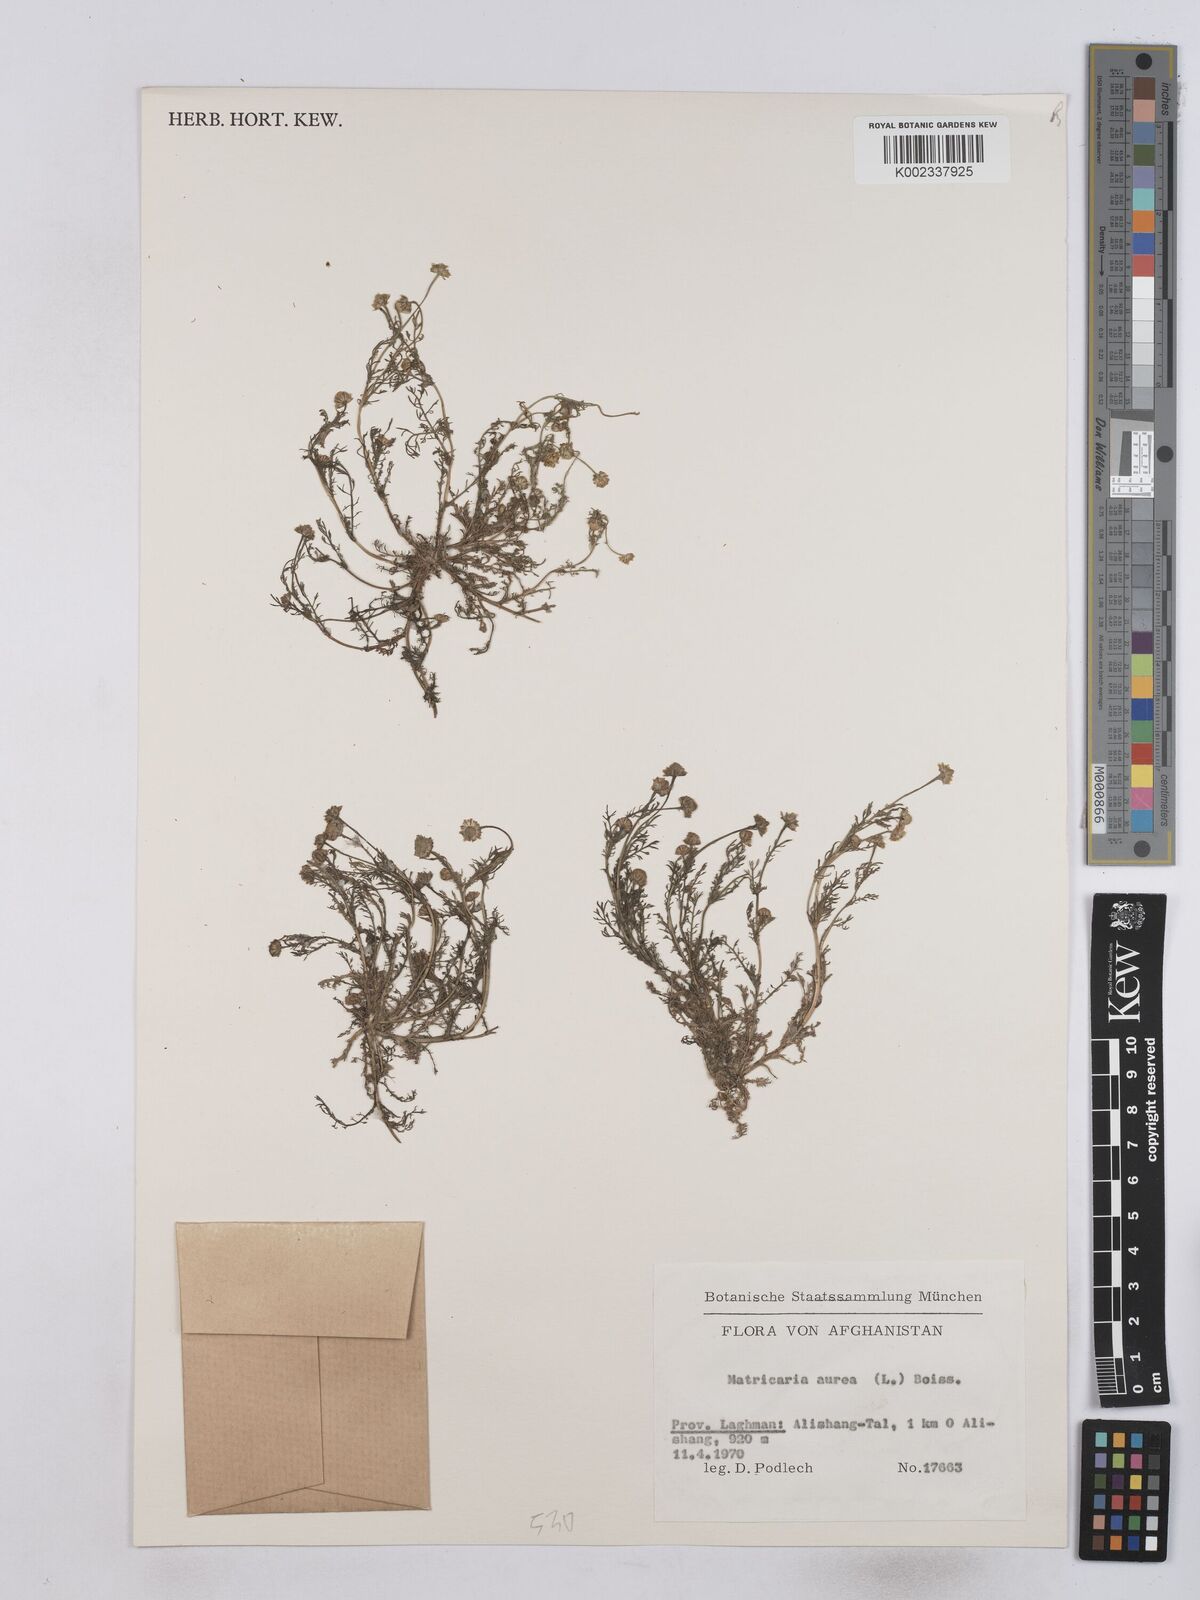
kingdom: Plantae
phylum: Tracheophyta
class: Magnoliopsida
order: Asterales
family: Asteraceae
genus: Matricaria
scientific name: Matricaria aurea
